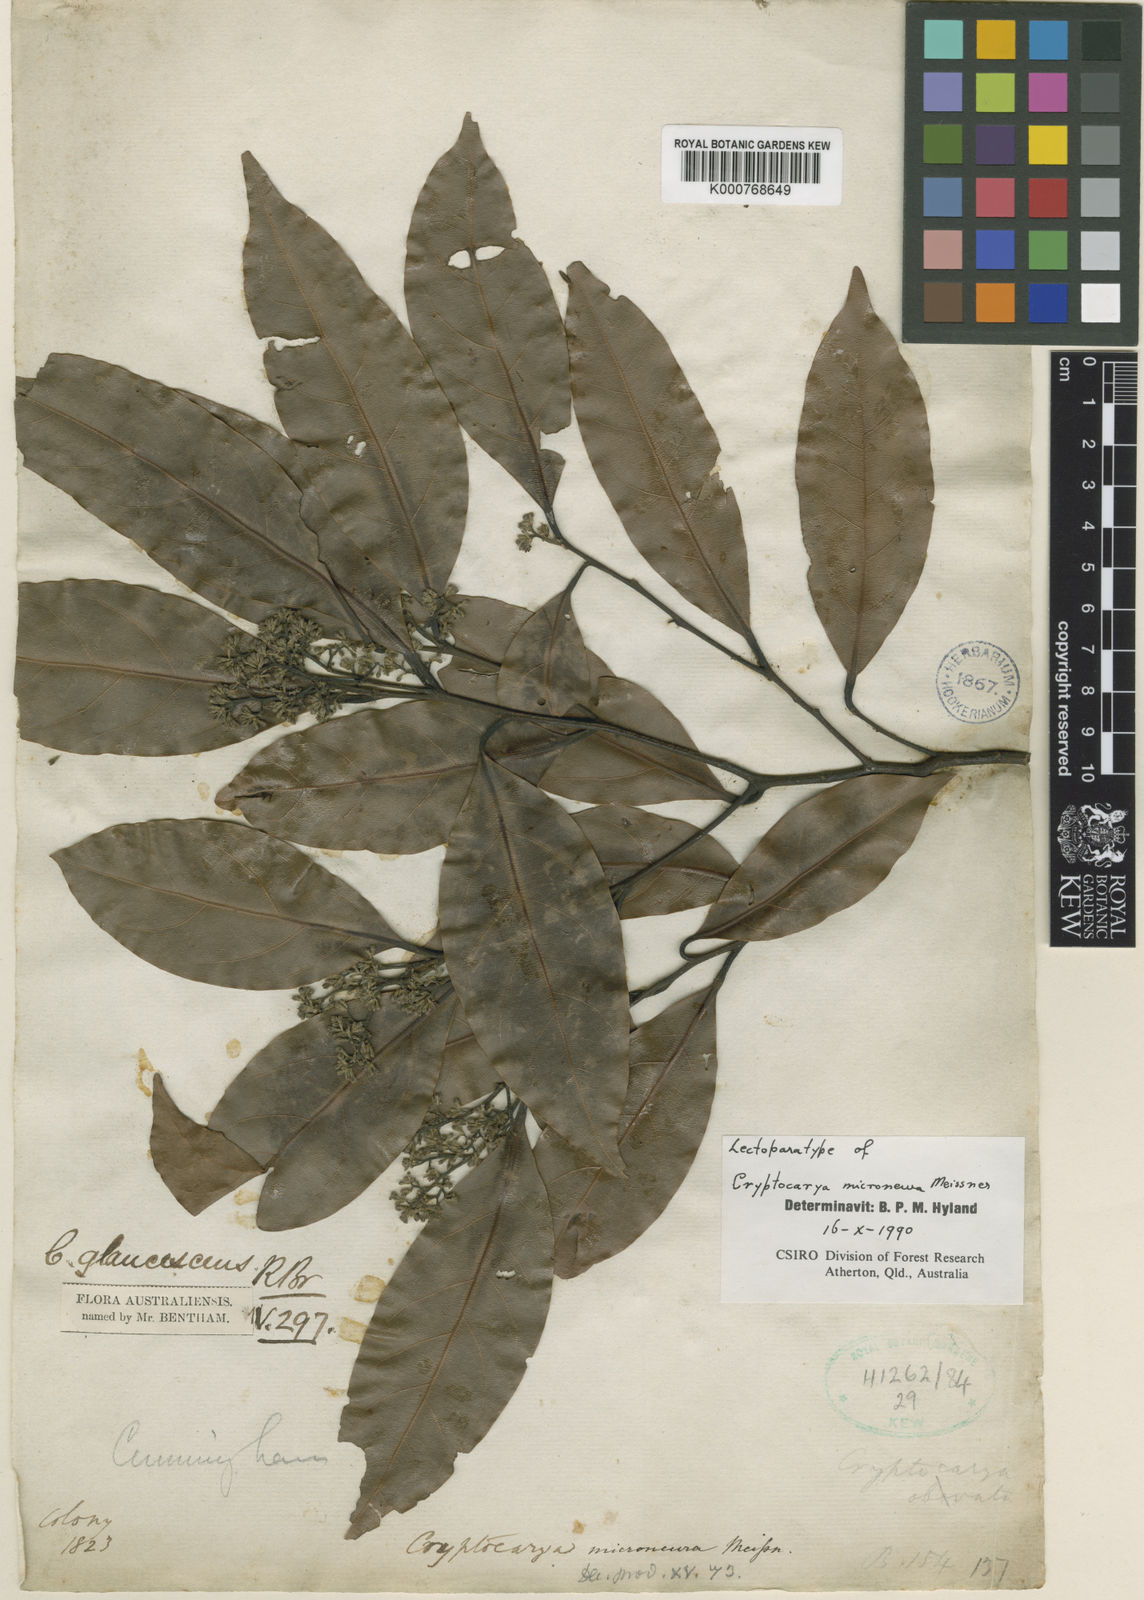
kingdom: Plantae
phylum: Tracheophyta
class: Magnoliopsida
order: Laurales
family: Lauraceae
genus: Cryptocarya
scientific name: Cryptocarya microneura
